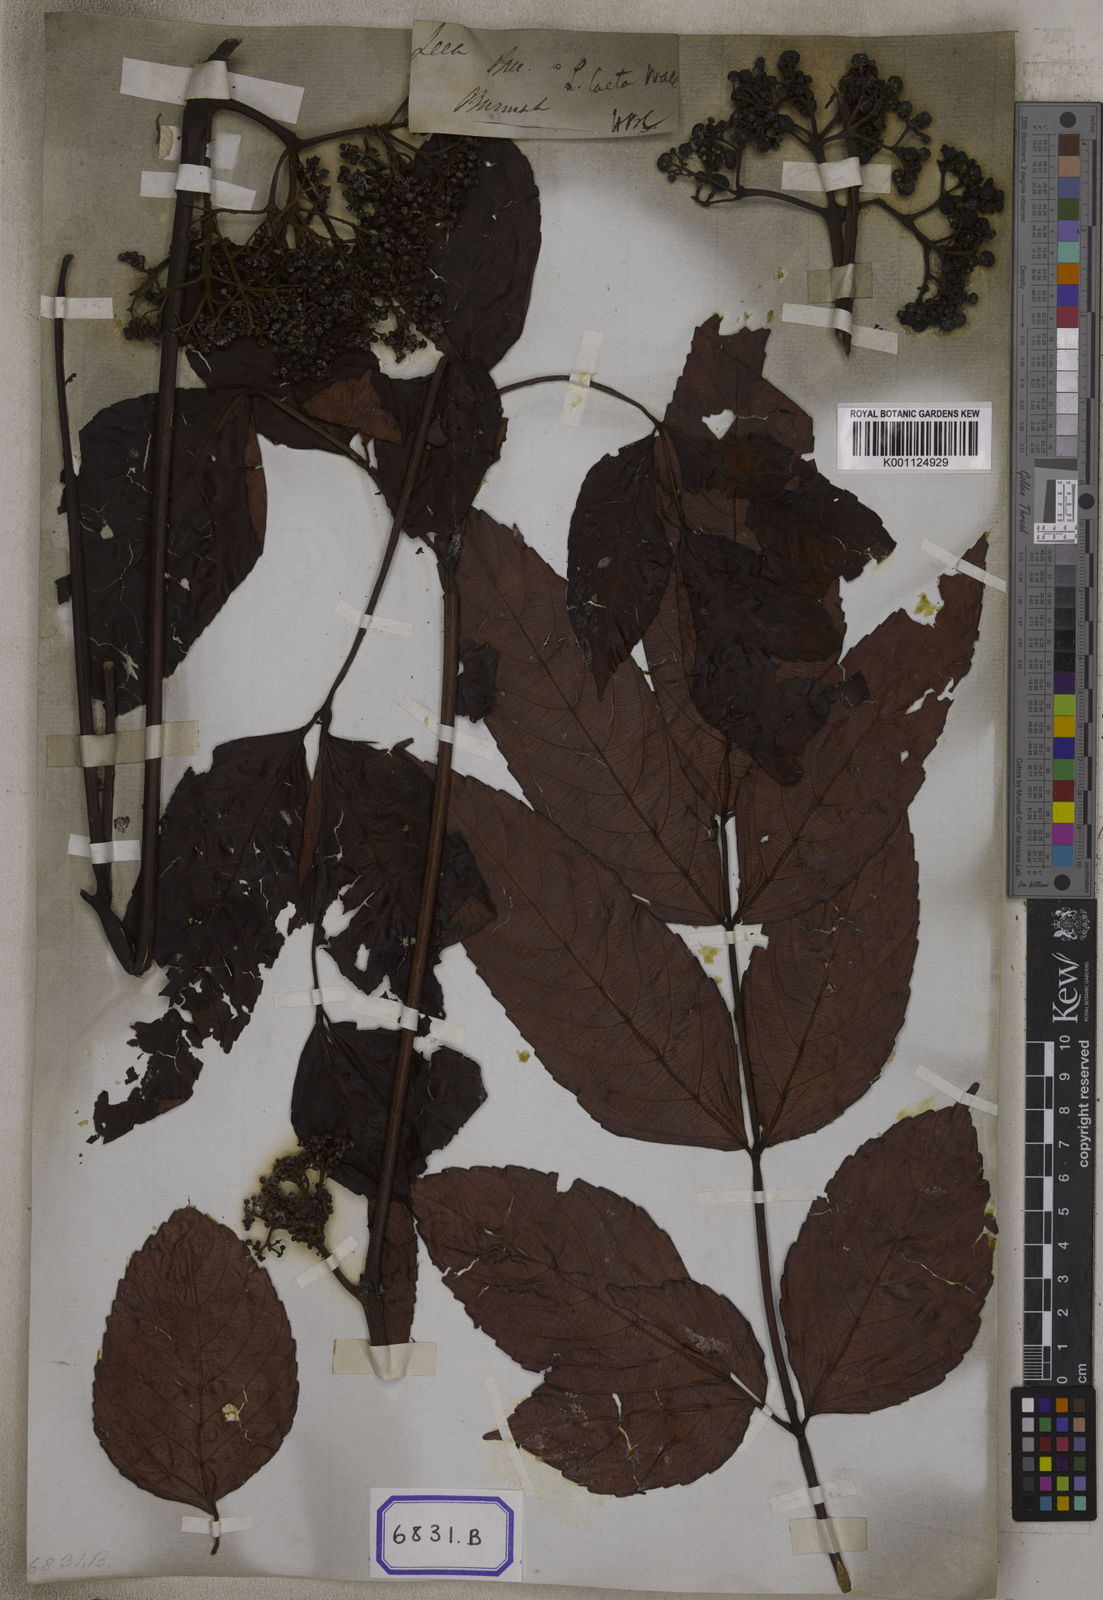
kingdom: Plantae
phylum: Tracheophyta
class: Magnoliopsida
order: Vitales
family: Vitaceae
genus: Leea
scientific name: Leea guineensis
